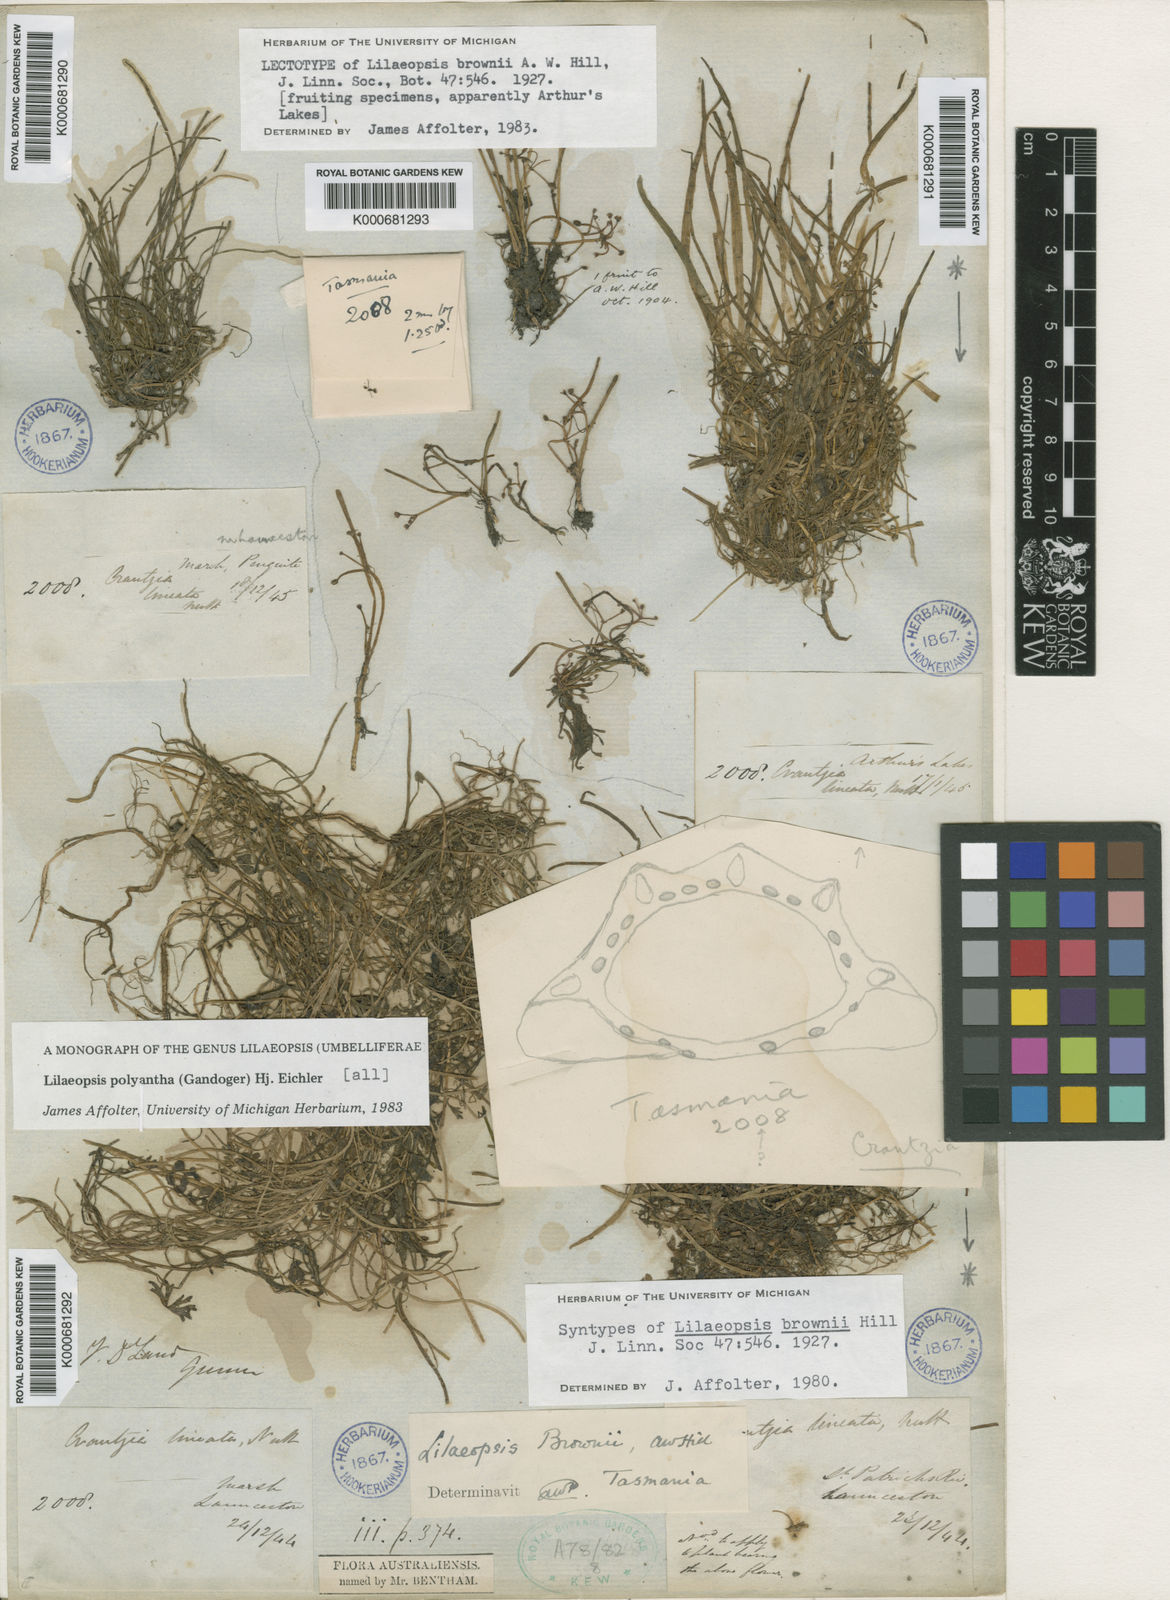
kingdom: Plantae
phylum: Tracheophyta
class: Magnoliopsida
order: Apiales
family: Apiaceae
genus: Lilaeopsis
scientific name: Lilaeopsis polyantha
